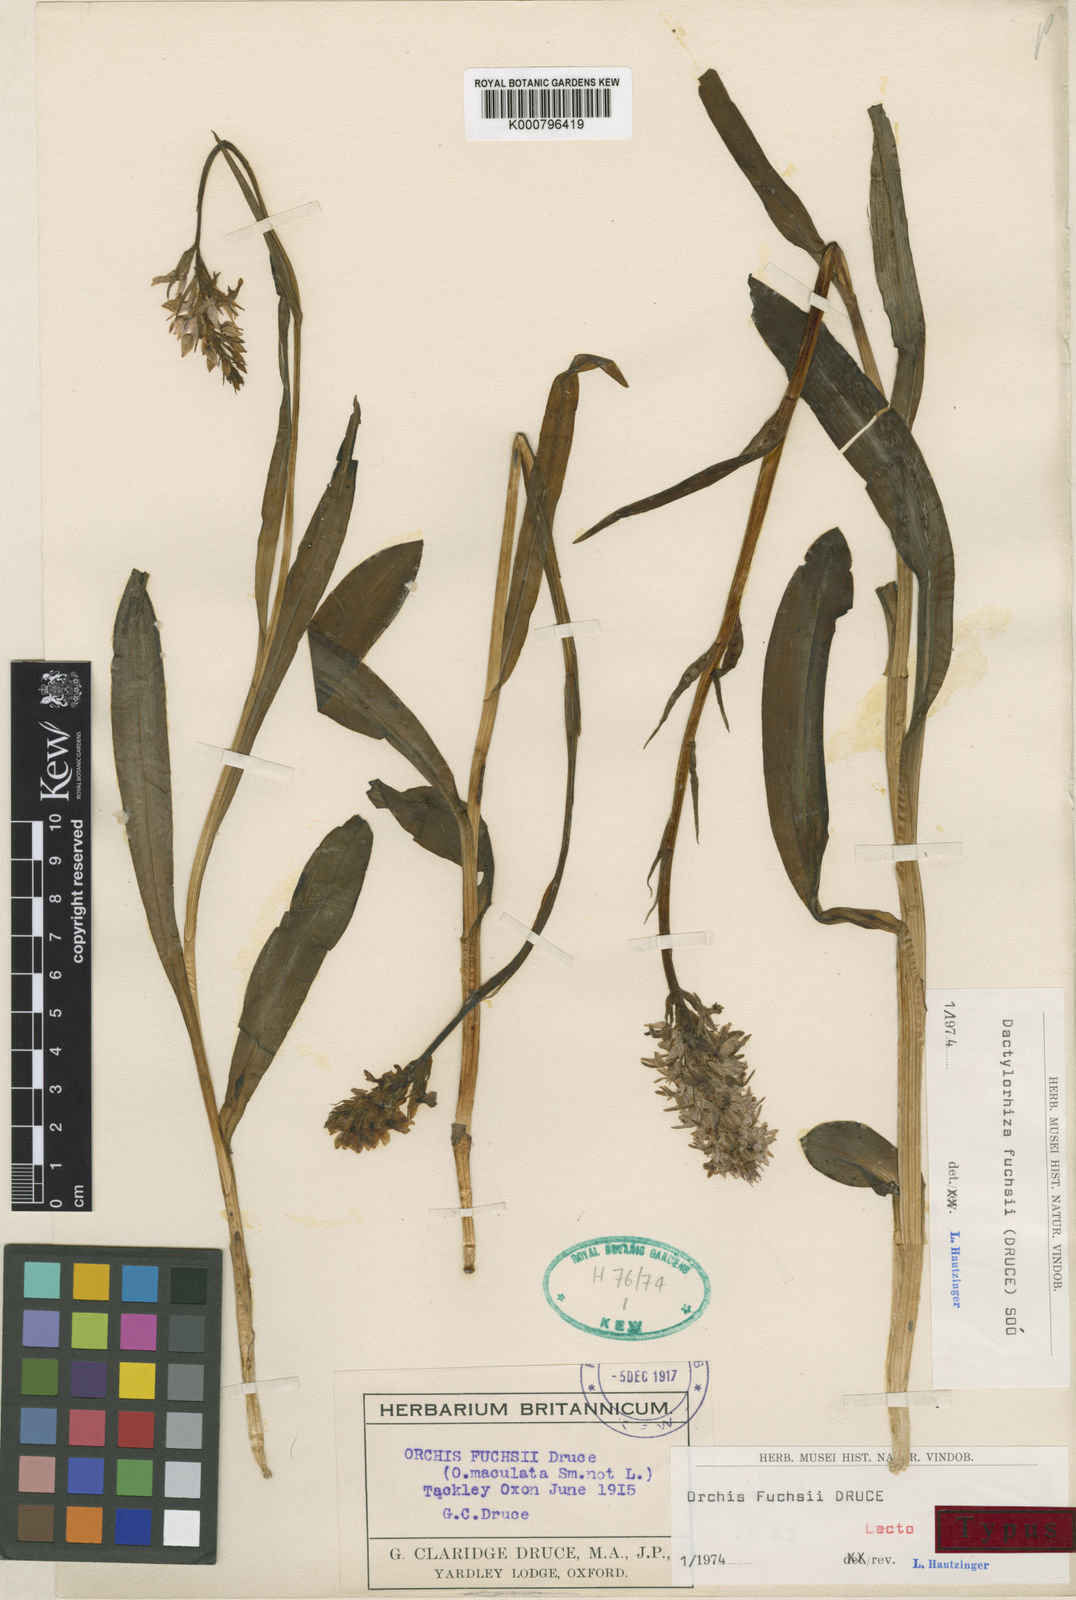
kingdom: Plantae
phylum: Tracheophyta
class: Liliopsida
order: Asparagales
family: Orchidaceae
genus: Dactylorhiza
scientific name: Dactylorhiza
